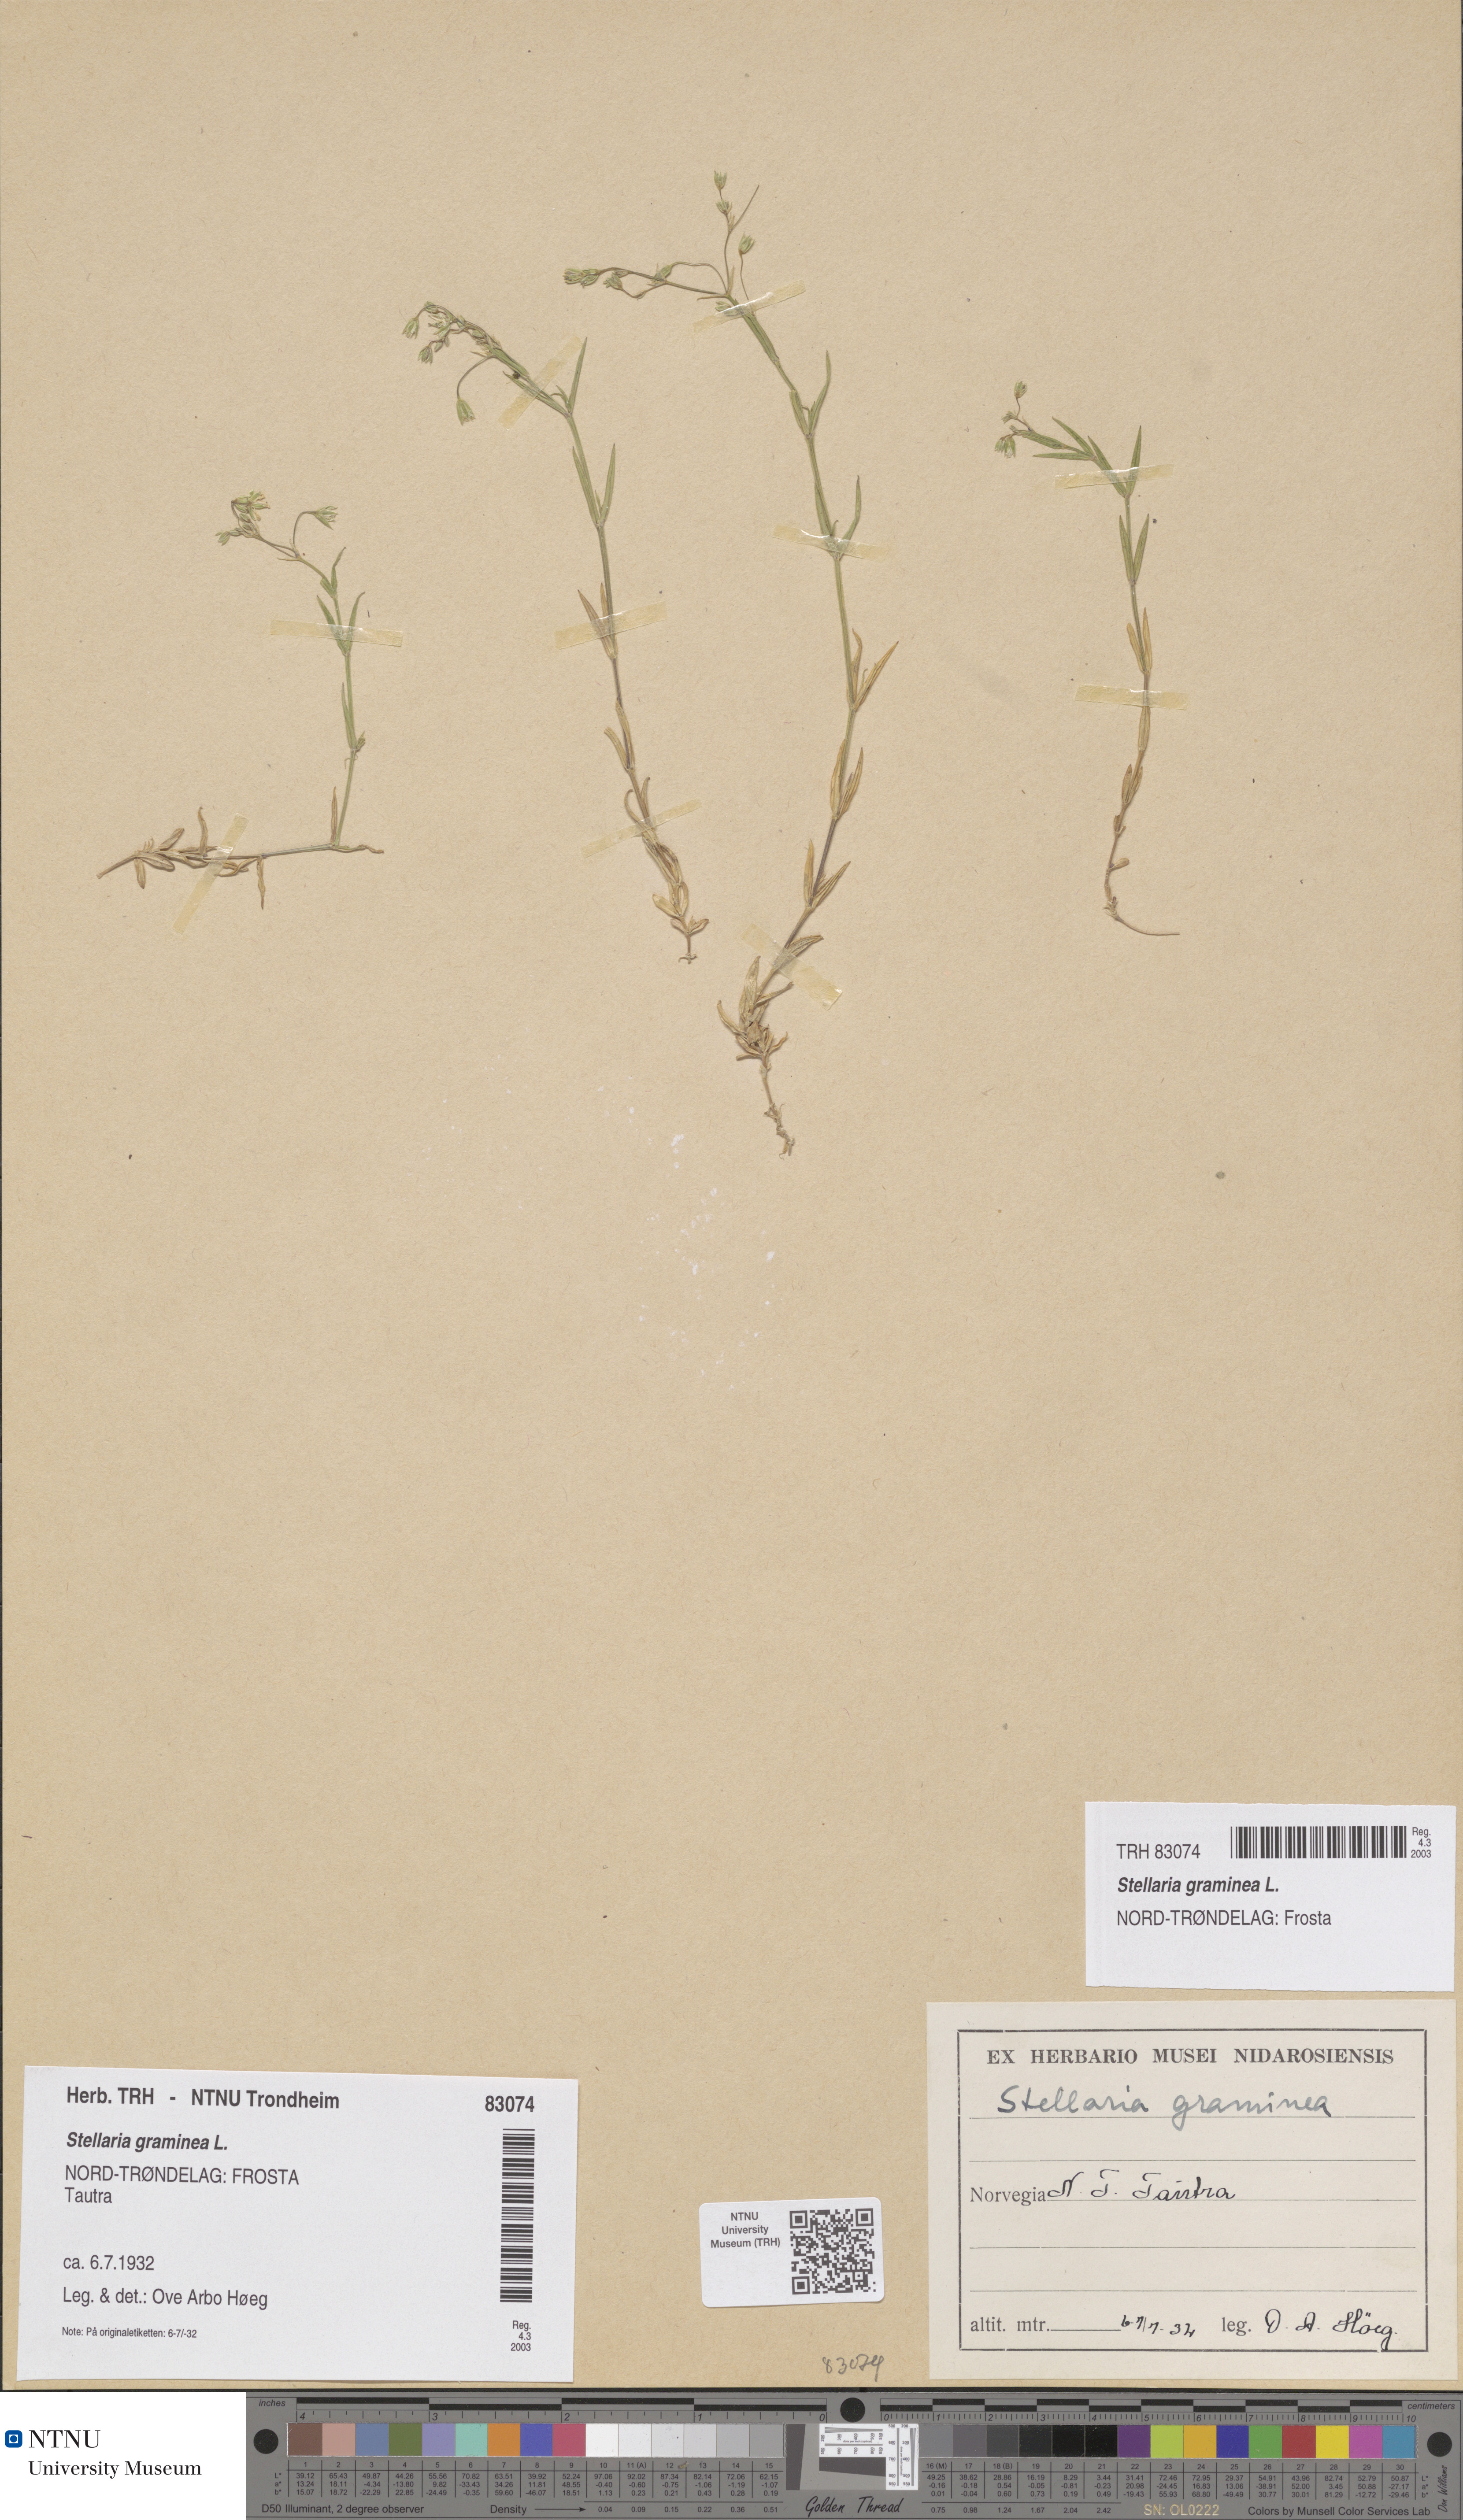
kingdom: Plantae
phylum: Tracheophyta
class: Magnoliopsida
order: Caryophyllales
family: Caryophyllaceae
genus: Stellaria
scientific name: Stellaria graminea
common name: Grass-like starwort
